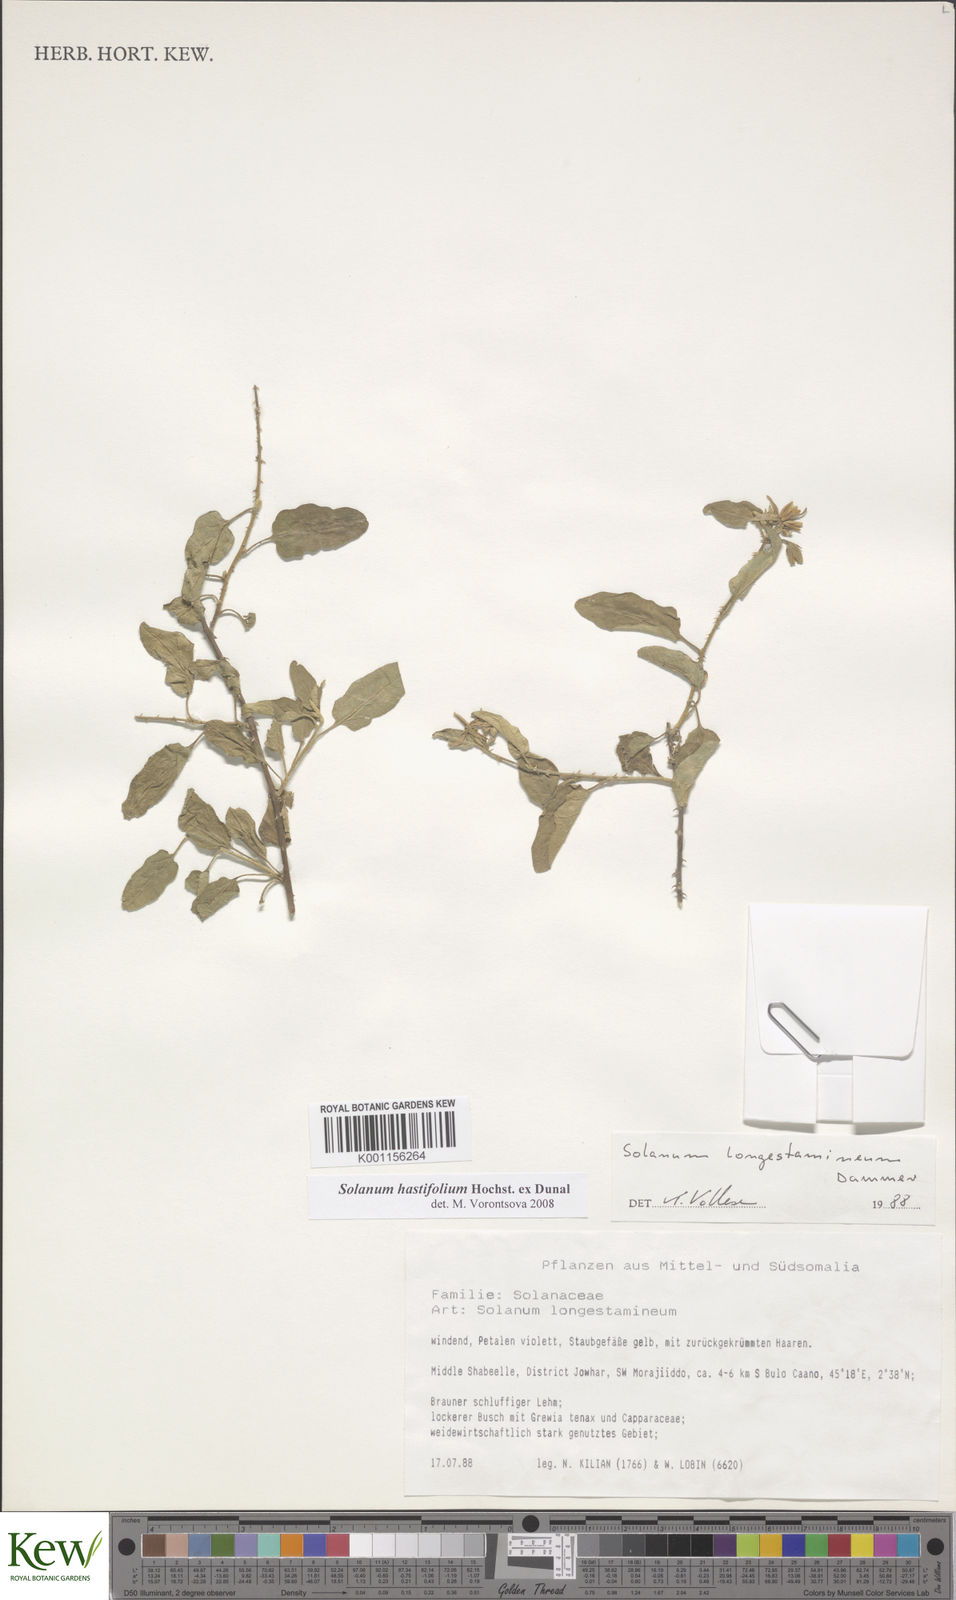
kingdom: Plantae
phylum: Tracheophyta
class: Magnoliopsida
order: Solanales
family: Solanaceae
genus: Solanum
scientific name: Solanum hastifolium
